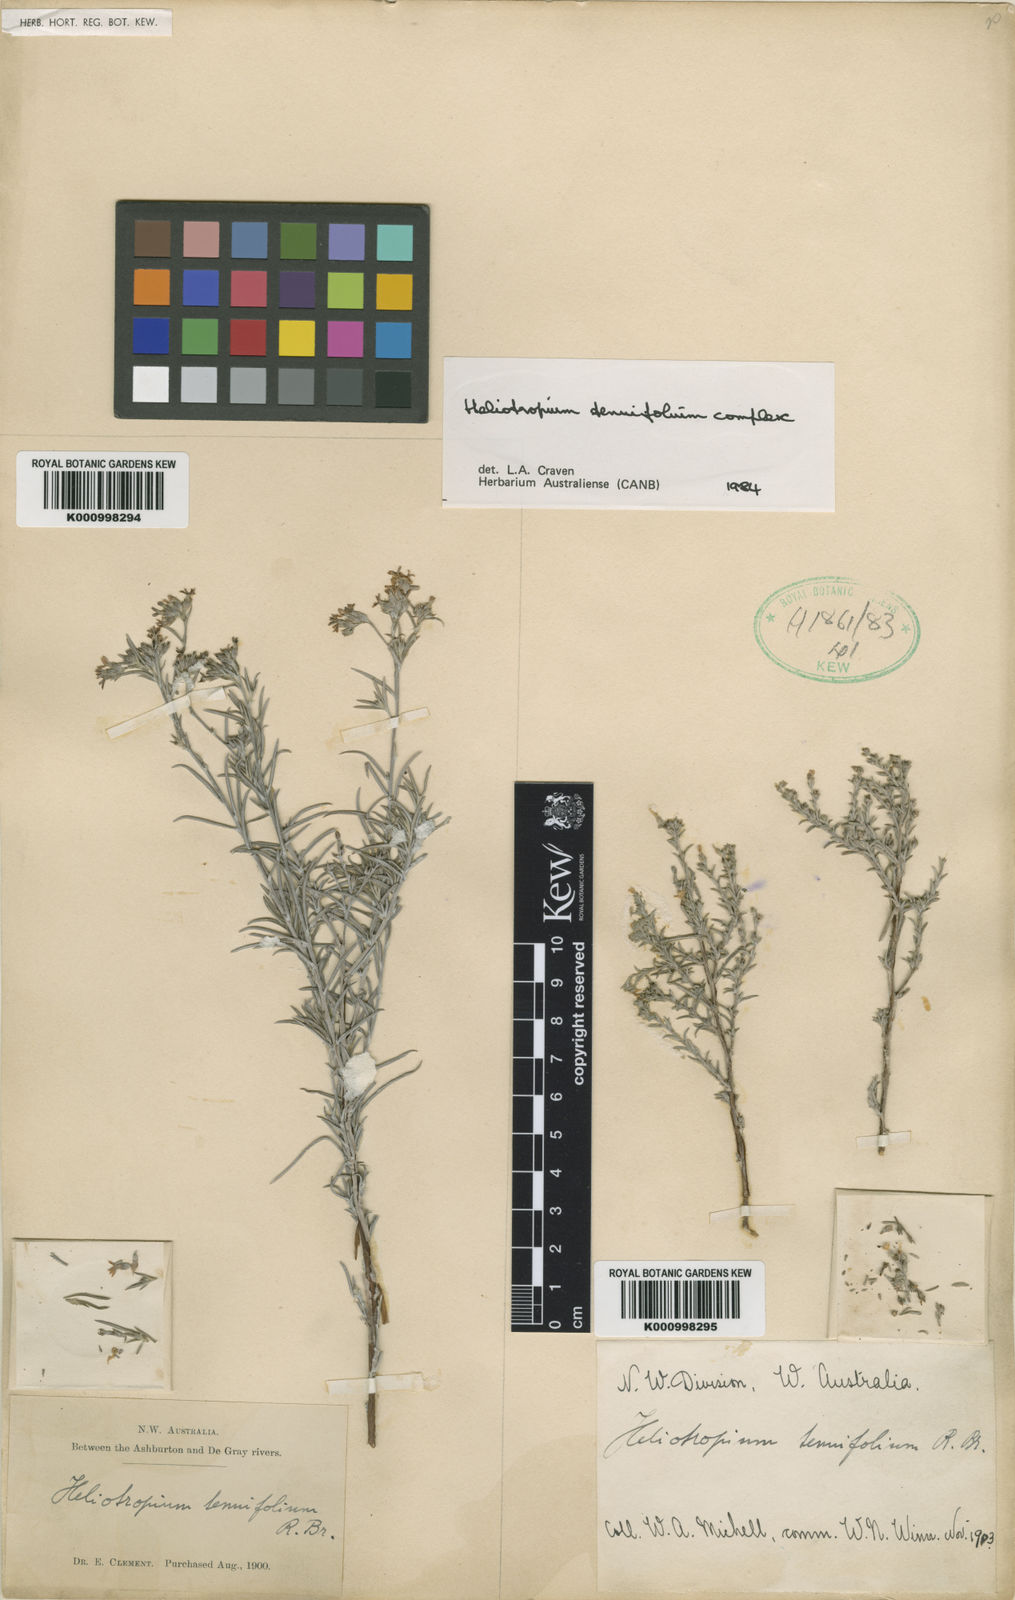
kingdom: Plantae
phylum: Tracheophyta
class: Magnoliopsida
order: Boraginales
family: Heliotropiaceae
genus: Euploca
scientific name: Euploca tenuifolia
